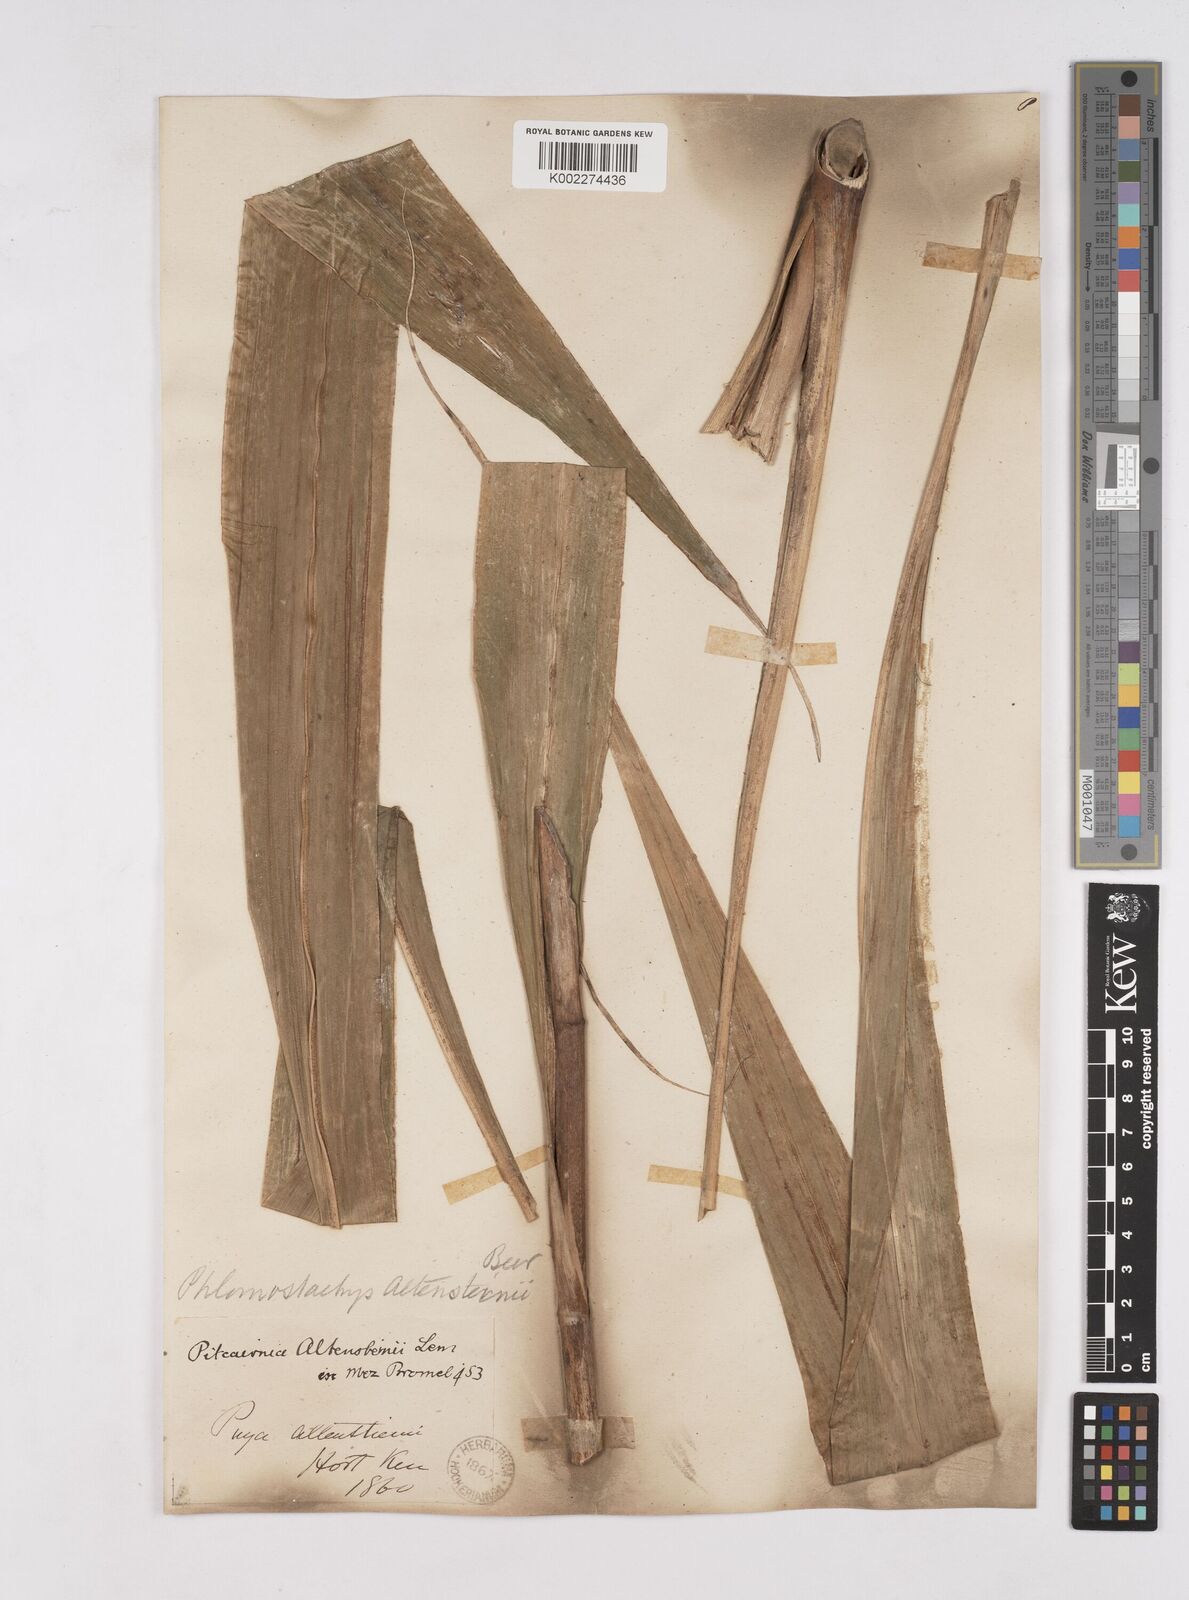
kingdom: Plantae
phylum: Tracheophyta
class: Liliopsida
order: Poales
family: Bromeliaceae
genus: Pitcairnia
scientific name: Pitcairnia altensteinii
